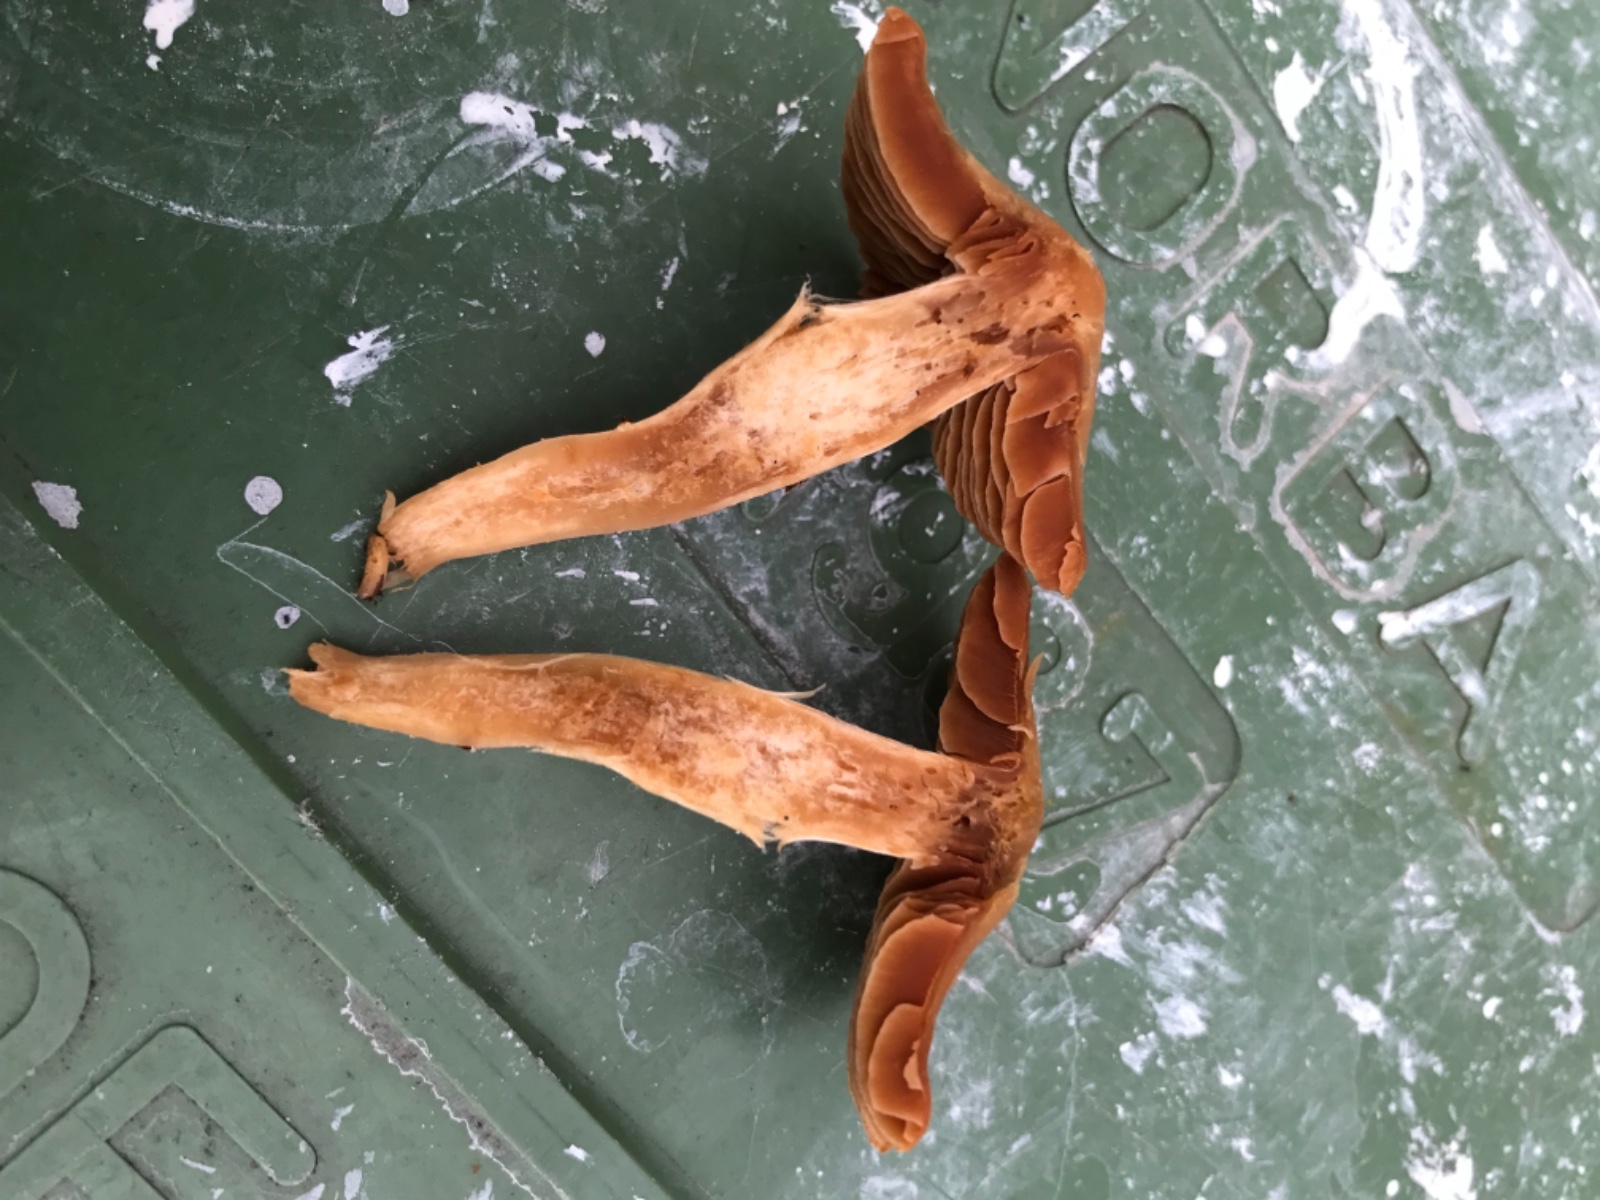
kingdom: Fungi
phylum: Basidiomycota
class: Agaricomycetes
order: Agaricales
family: Cortinariaceae
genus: Cortinarius
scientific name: Cortinarius
